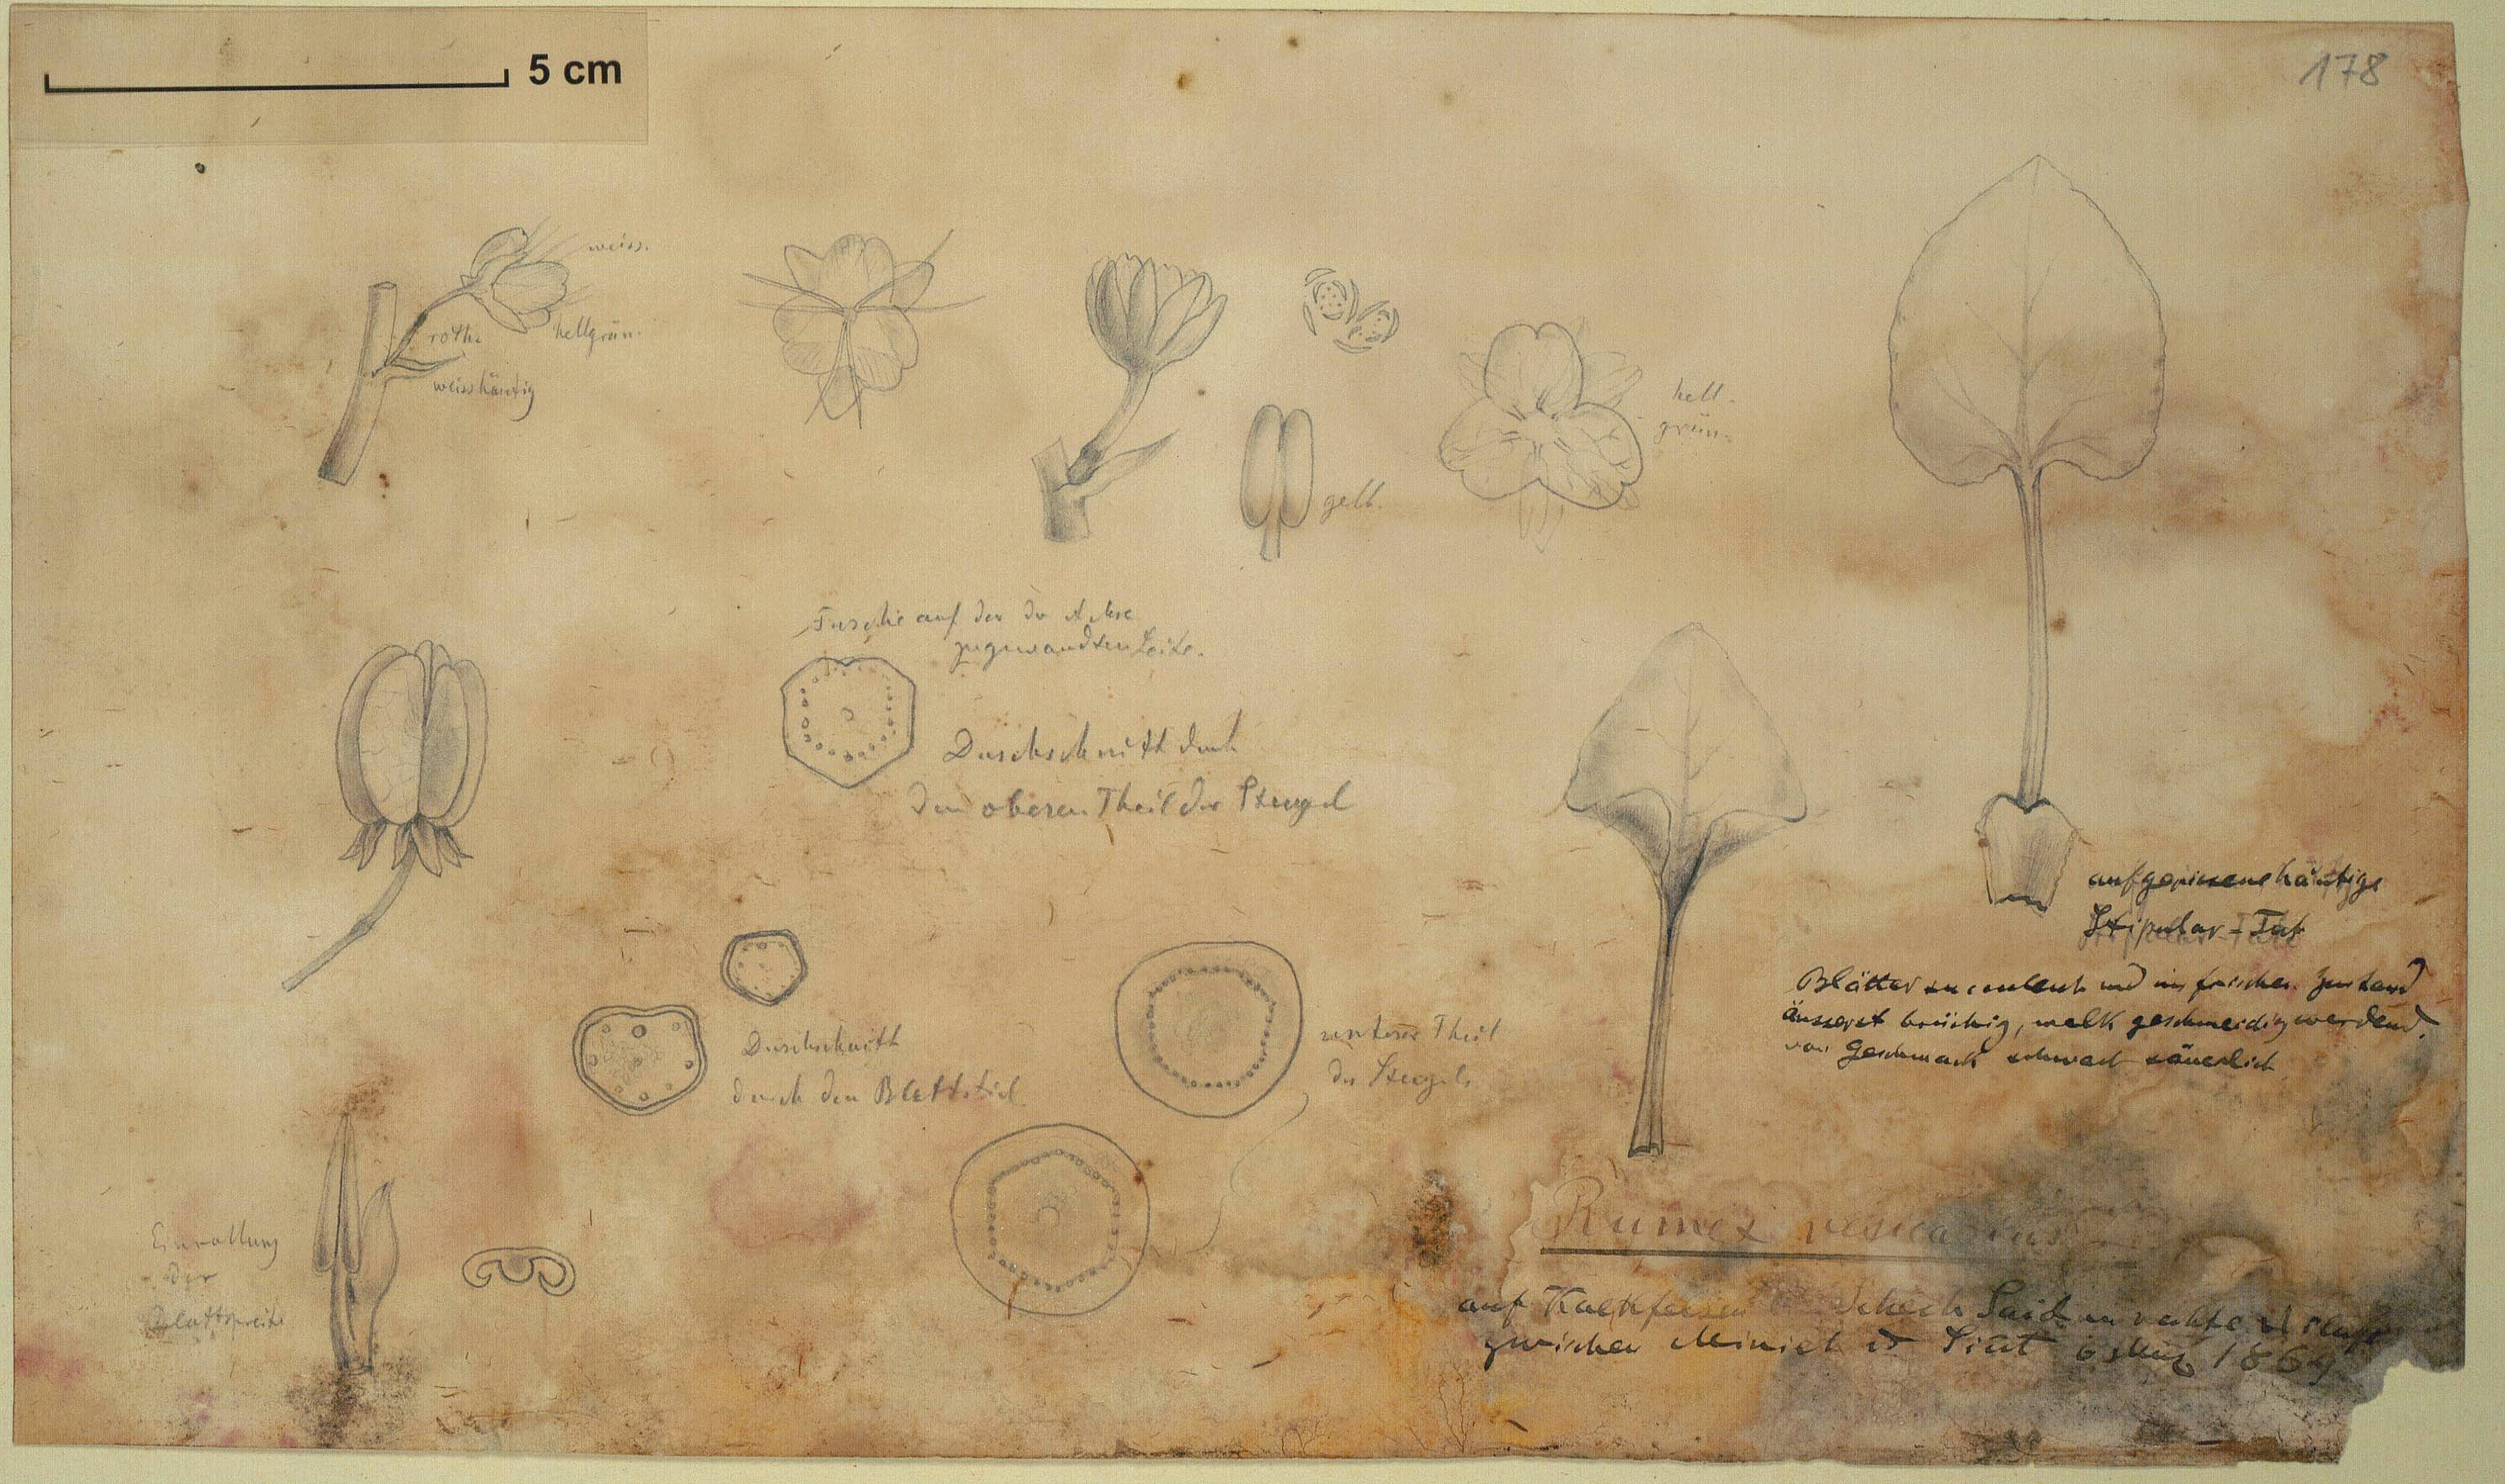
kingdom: Plantae
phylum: Tracheophyta
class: Magnoliopsida
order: Caryophyllales
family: Polygonaceae
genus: Rumex
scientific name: Rumex vesicarius
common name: Bladder dock
